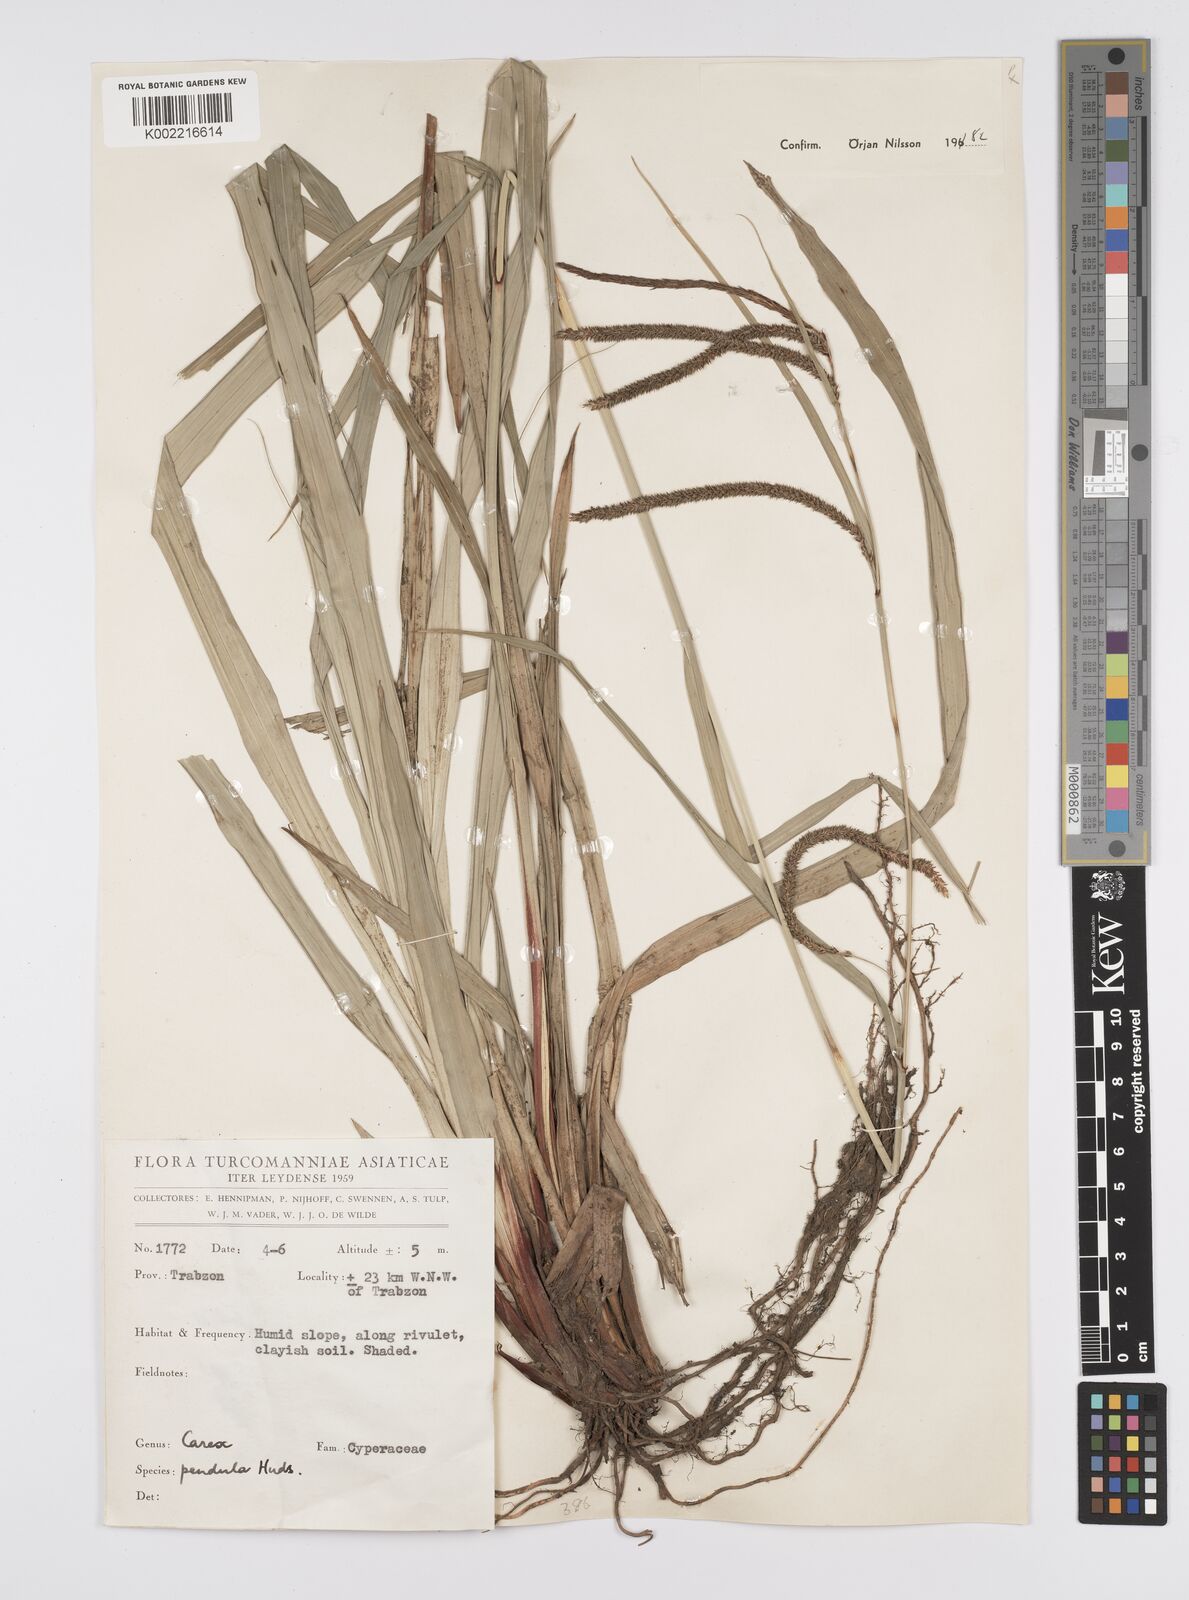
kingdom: Plantae
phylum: Tracheophyta
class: Liliopsida
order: Poales
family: Cyperaceae
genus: Carex
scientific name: Carex pendula
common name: Pendulous sedge
